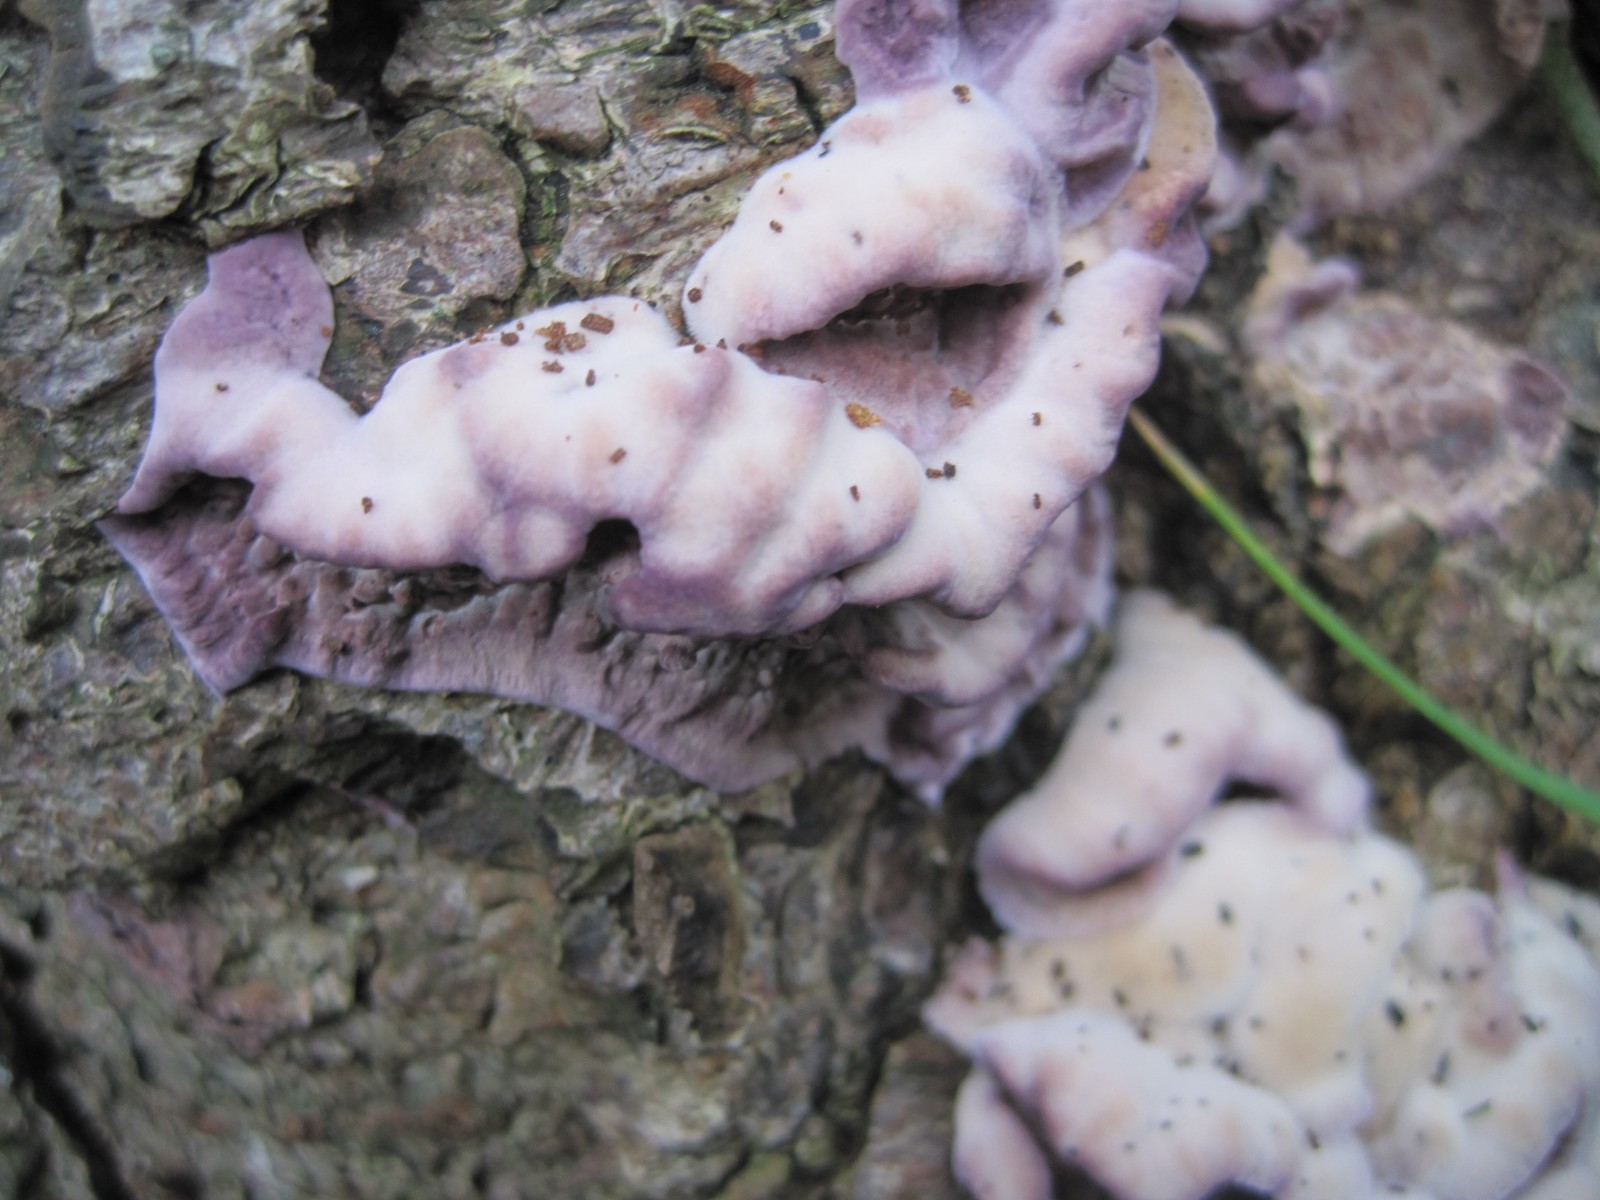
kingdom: Fungi
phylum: Basidiomycota
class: Agaricomycetes
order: Agaricales
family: Cyphellaceae
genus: Chondrostereum
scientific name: Chondrostereum purpureum
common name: purpurlædersvamp
